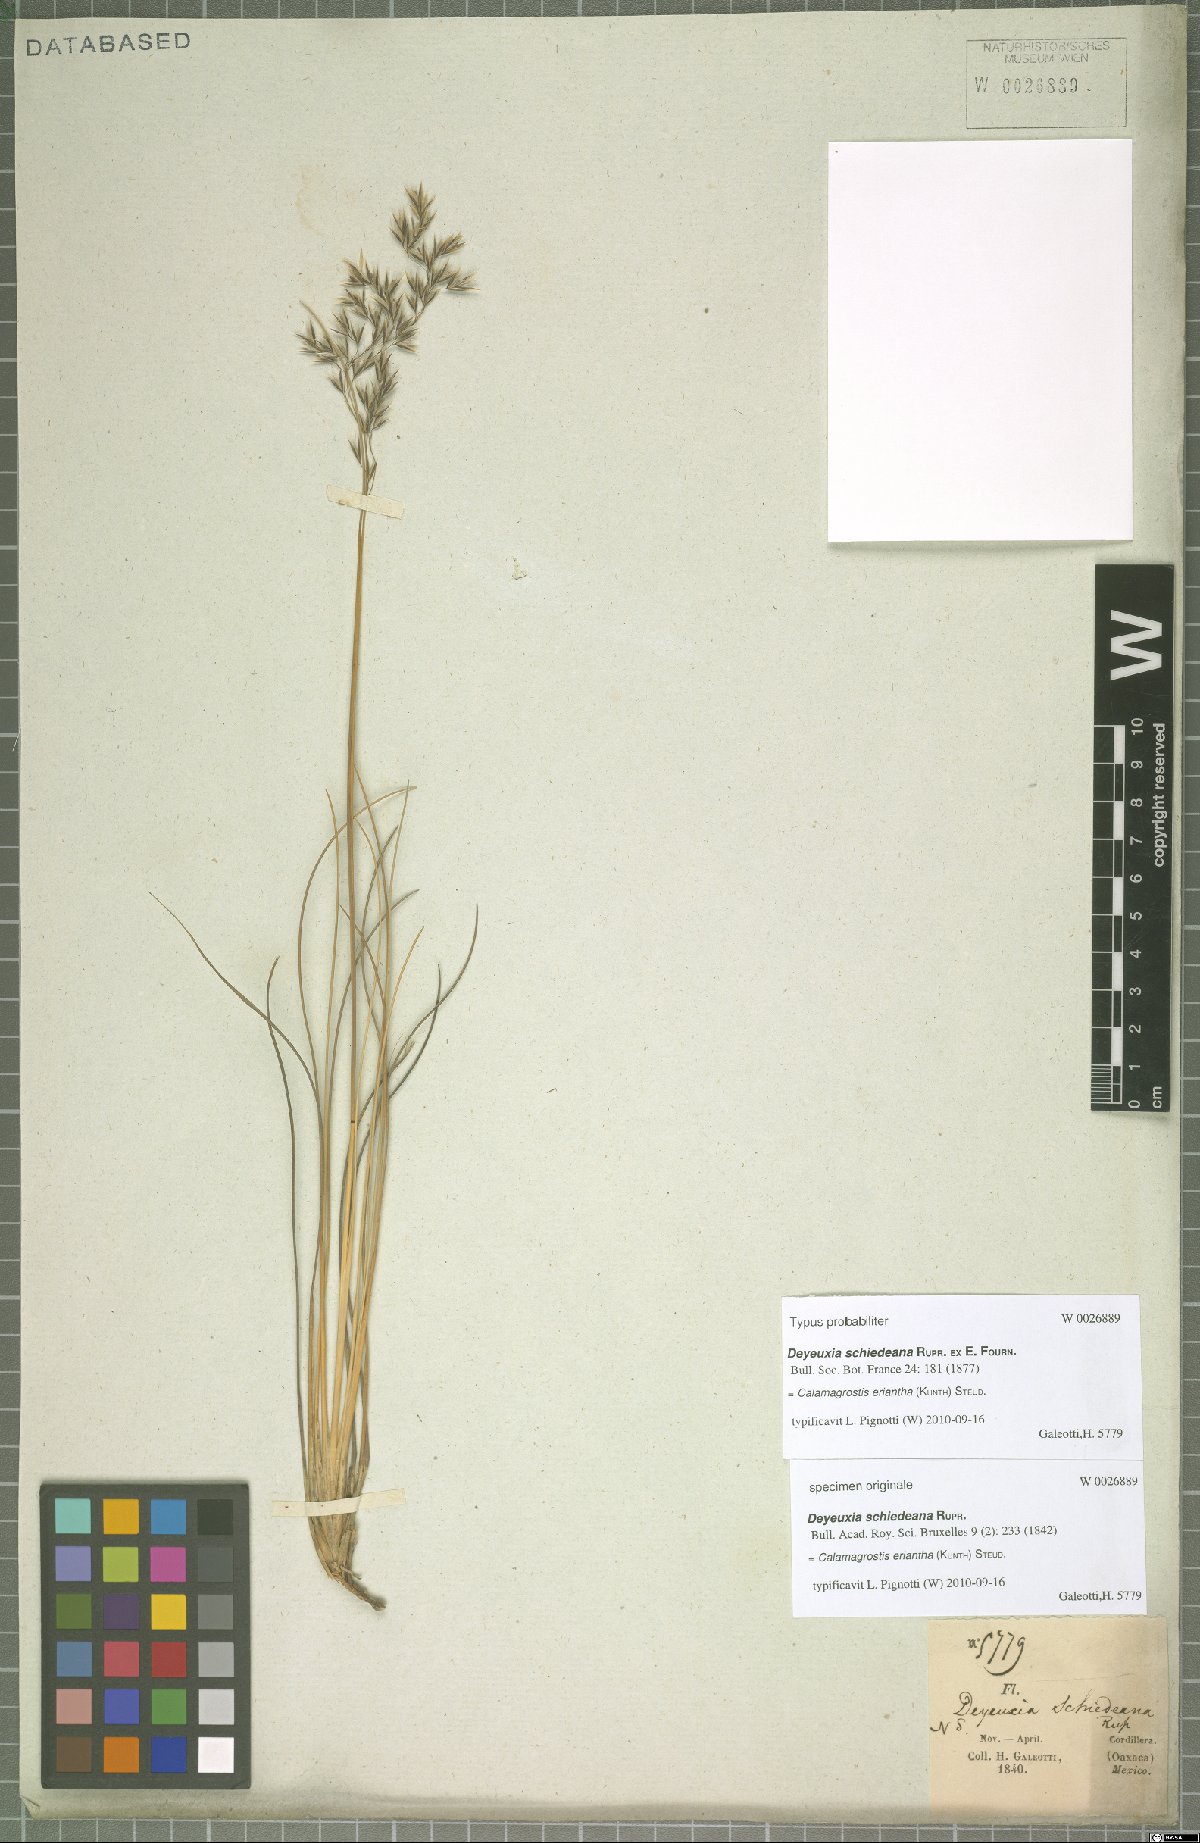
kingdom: Plantae
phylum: Tracheophyta
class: Liliopsida
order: Poales
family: Poaceae
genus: Peyritschia
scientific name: Peyritschia eriantha
